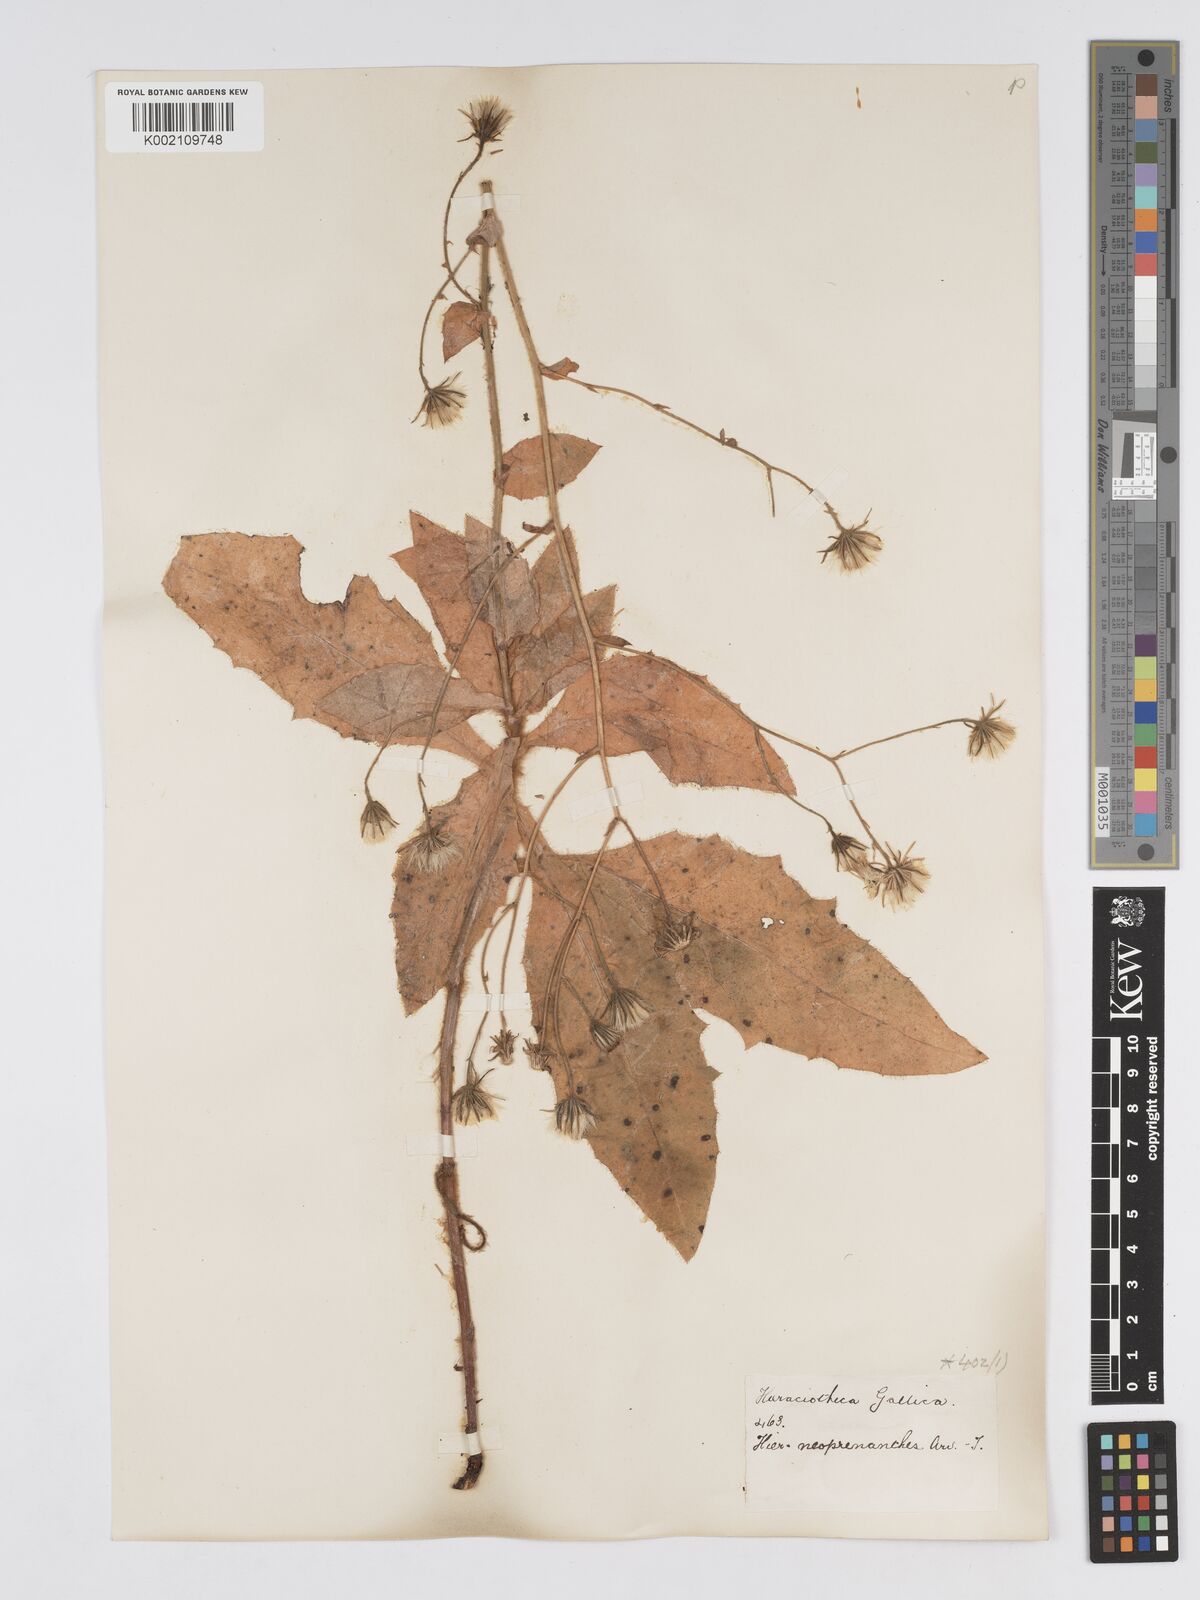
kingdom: Plantae
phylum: Tracheophyta
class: Magnoliopsida
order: Asterales
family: Asteraceae
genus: Hieracium
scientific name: Hieracium symphytaceum
